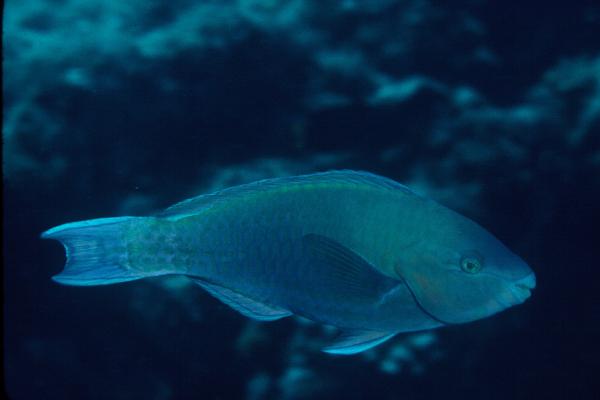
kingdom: Animalia
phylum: Chordata
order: Perciformes
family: Scaridae
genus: Scarus
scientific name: Scarus psittacus
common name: Palenose parrotfish
